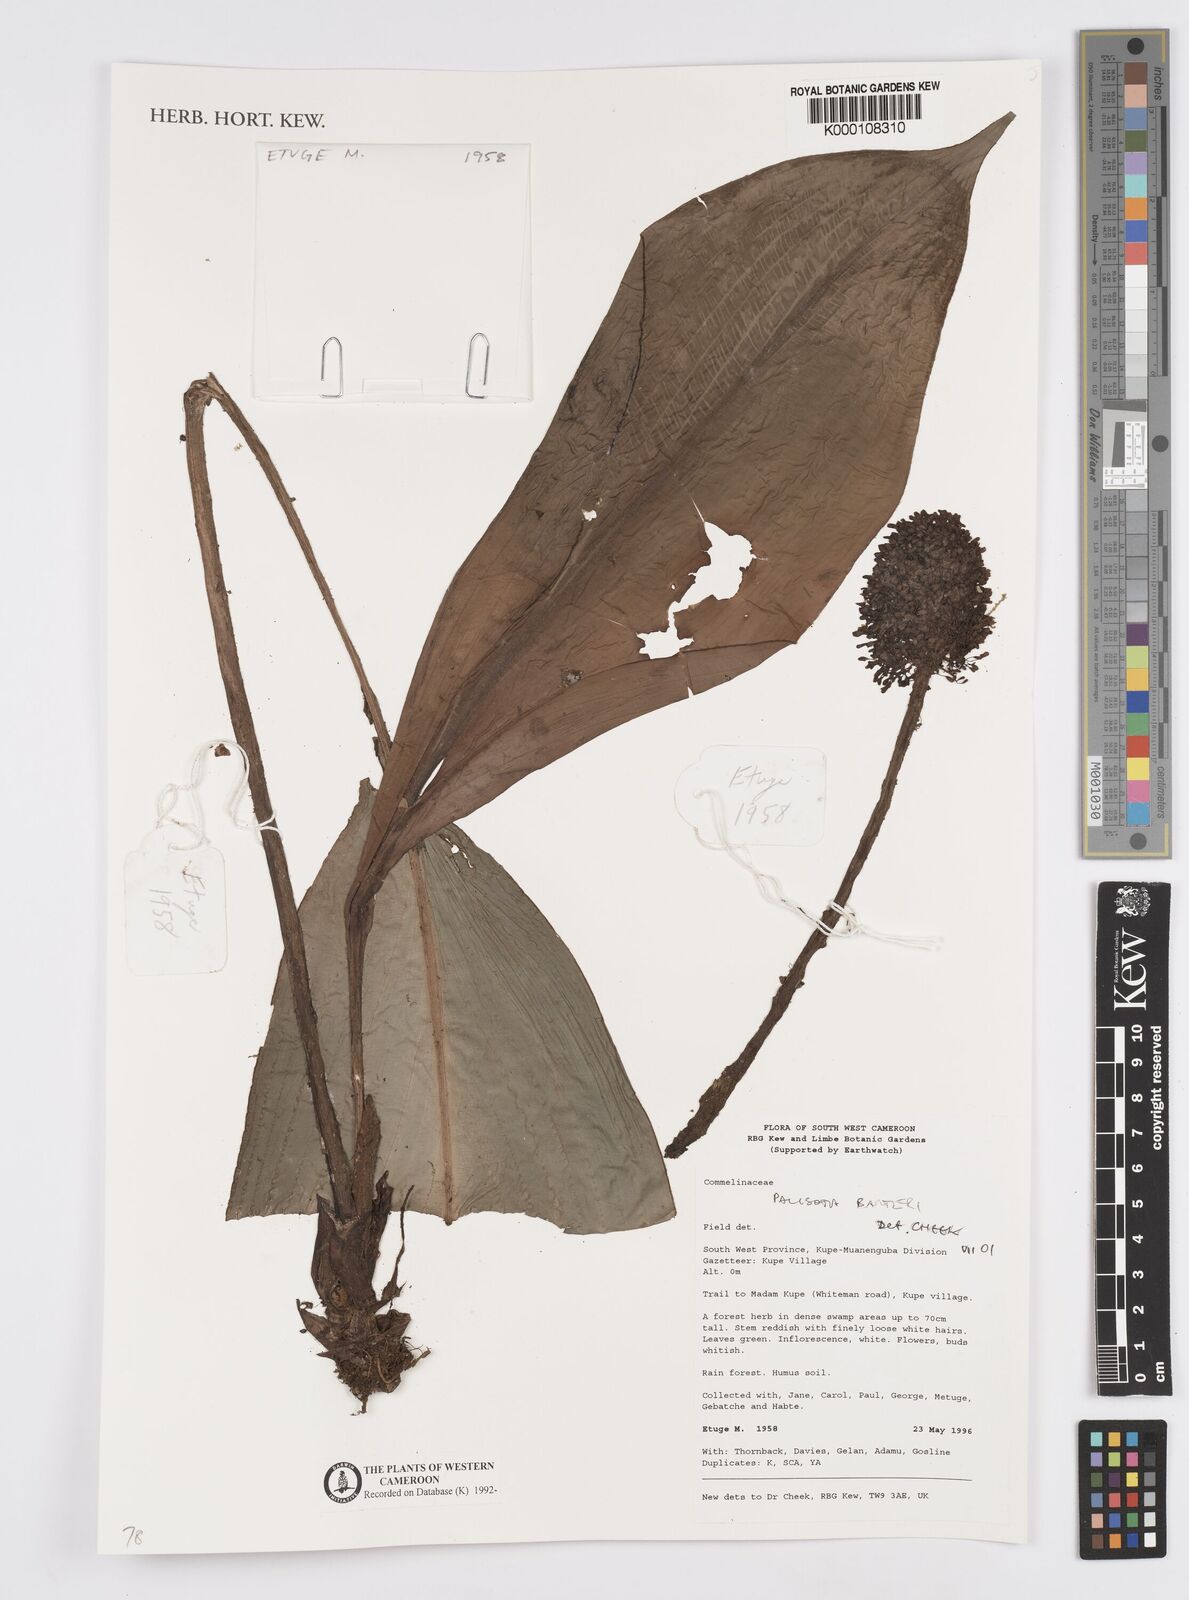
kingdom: Plantae
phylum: Tracheophyta
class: Liliopsida
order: Commelinales
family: Commelinaceae
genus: Palisota
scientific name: Palisota barteri
